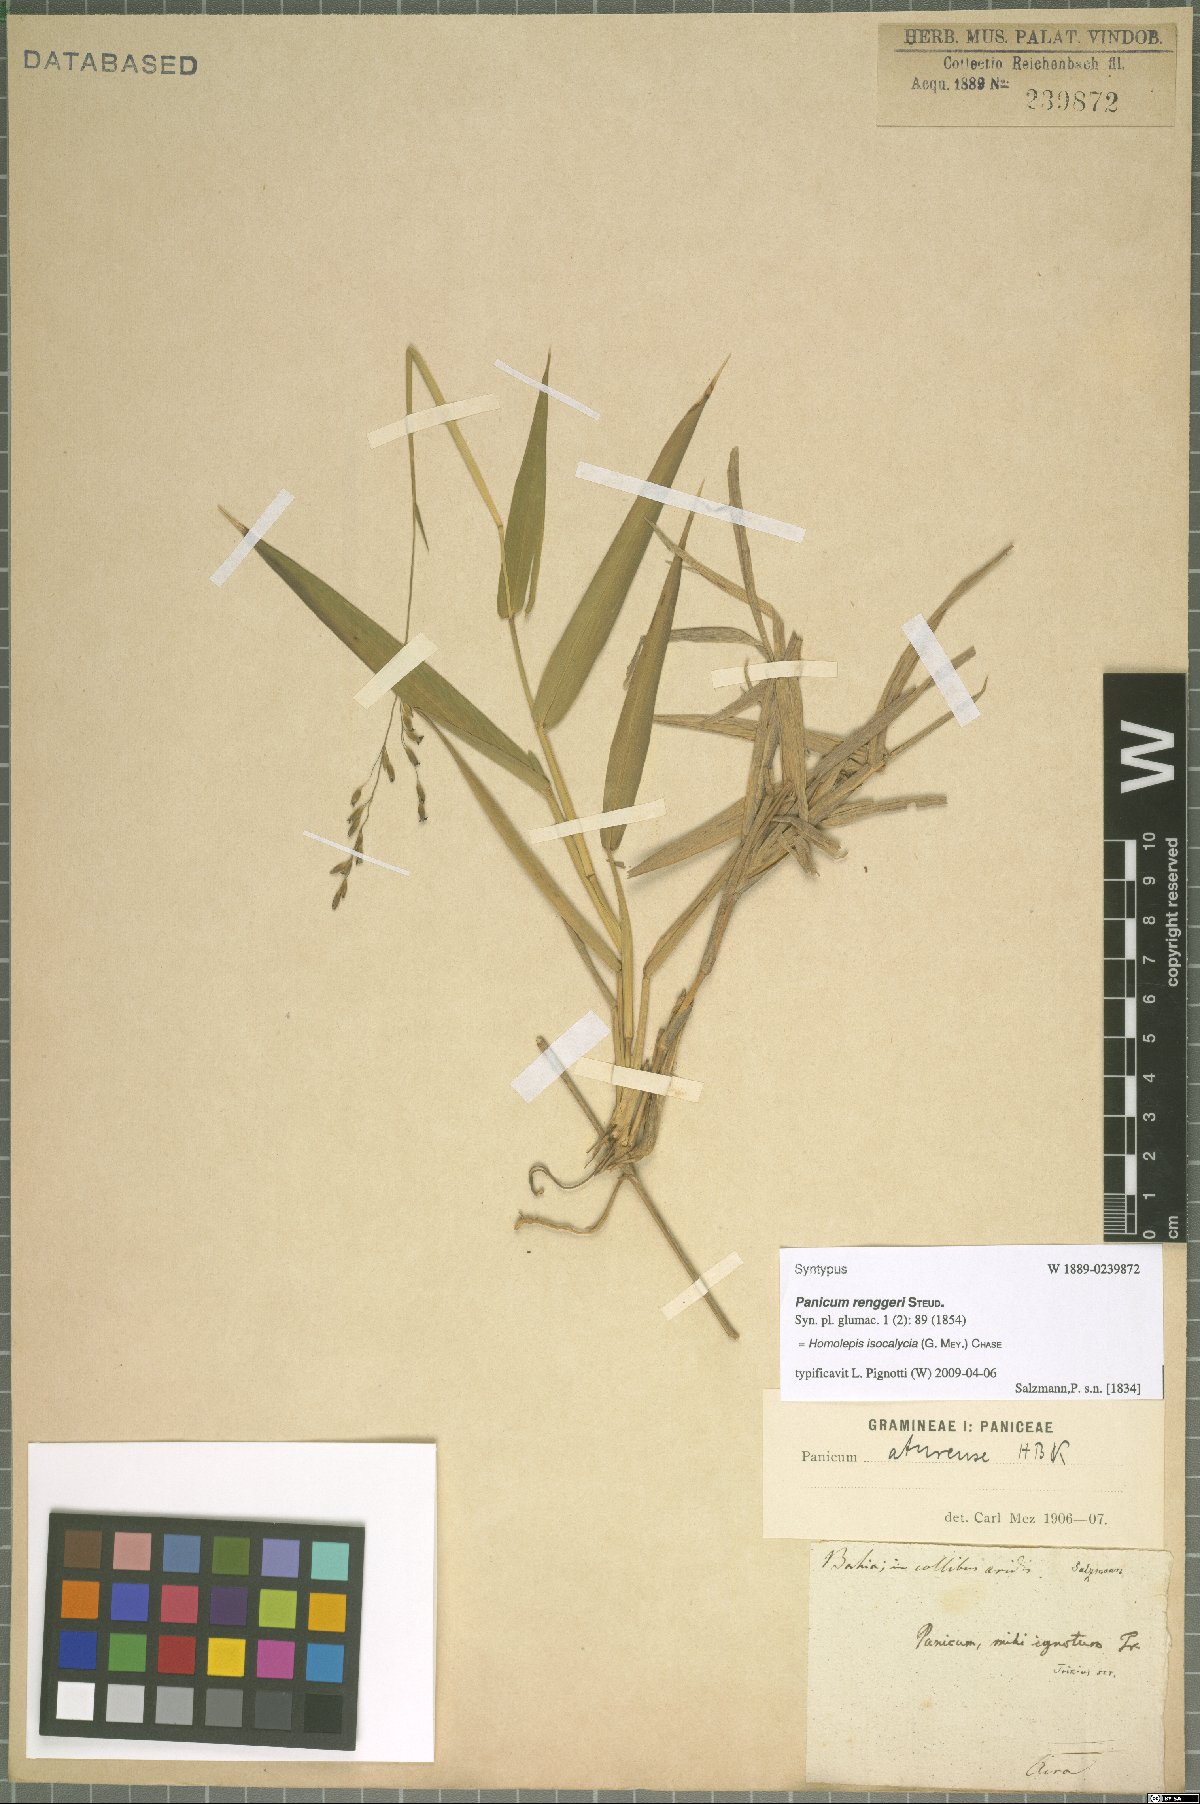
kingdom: Plantae
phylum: Tracheophyta
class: Liliopsida
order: Poales
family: Poaceae
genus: Homolepis
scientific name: Homolepis isocalycia
